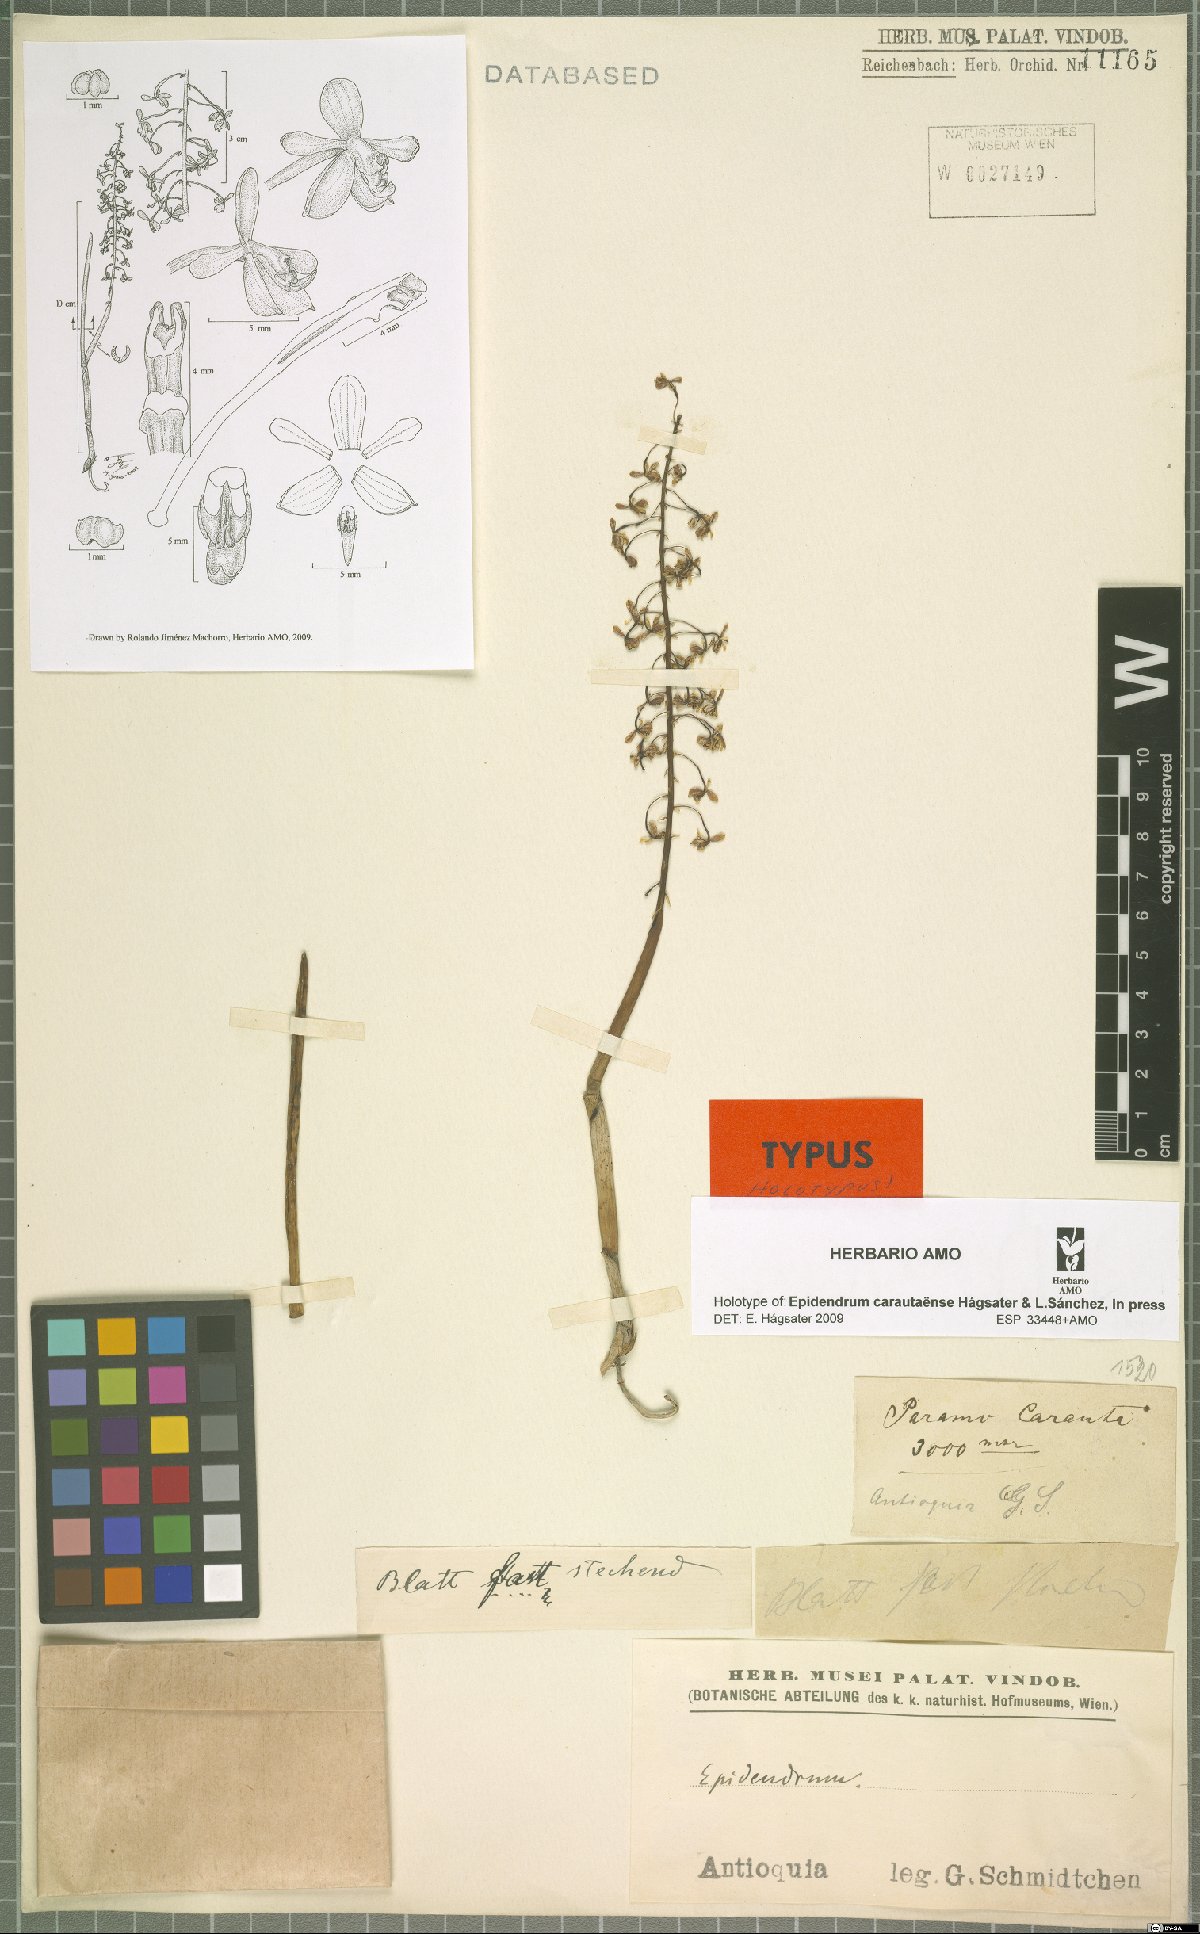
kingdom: Plantae
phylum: Tracheophyta
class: Liliopsida
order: Asparagales
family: Orchidaceae
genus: Epidendrum
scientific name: Epidendrum carautaense
